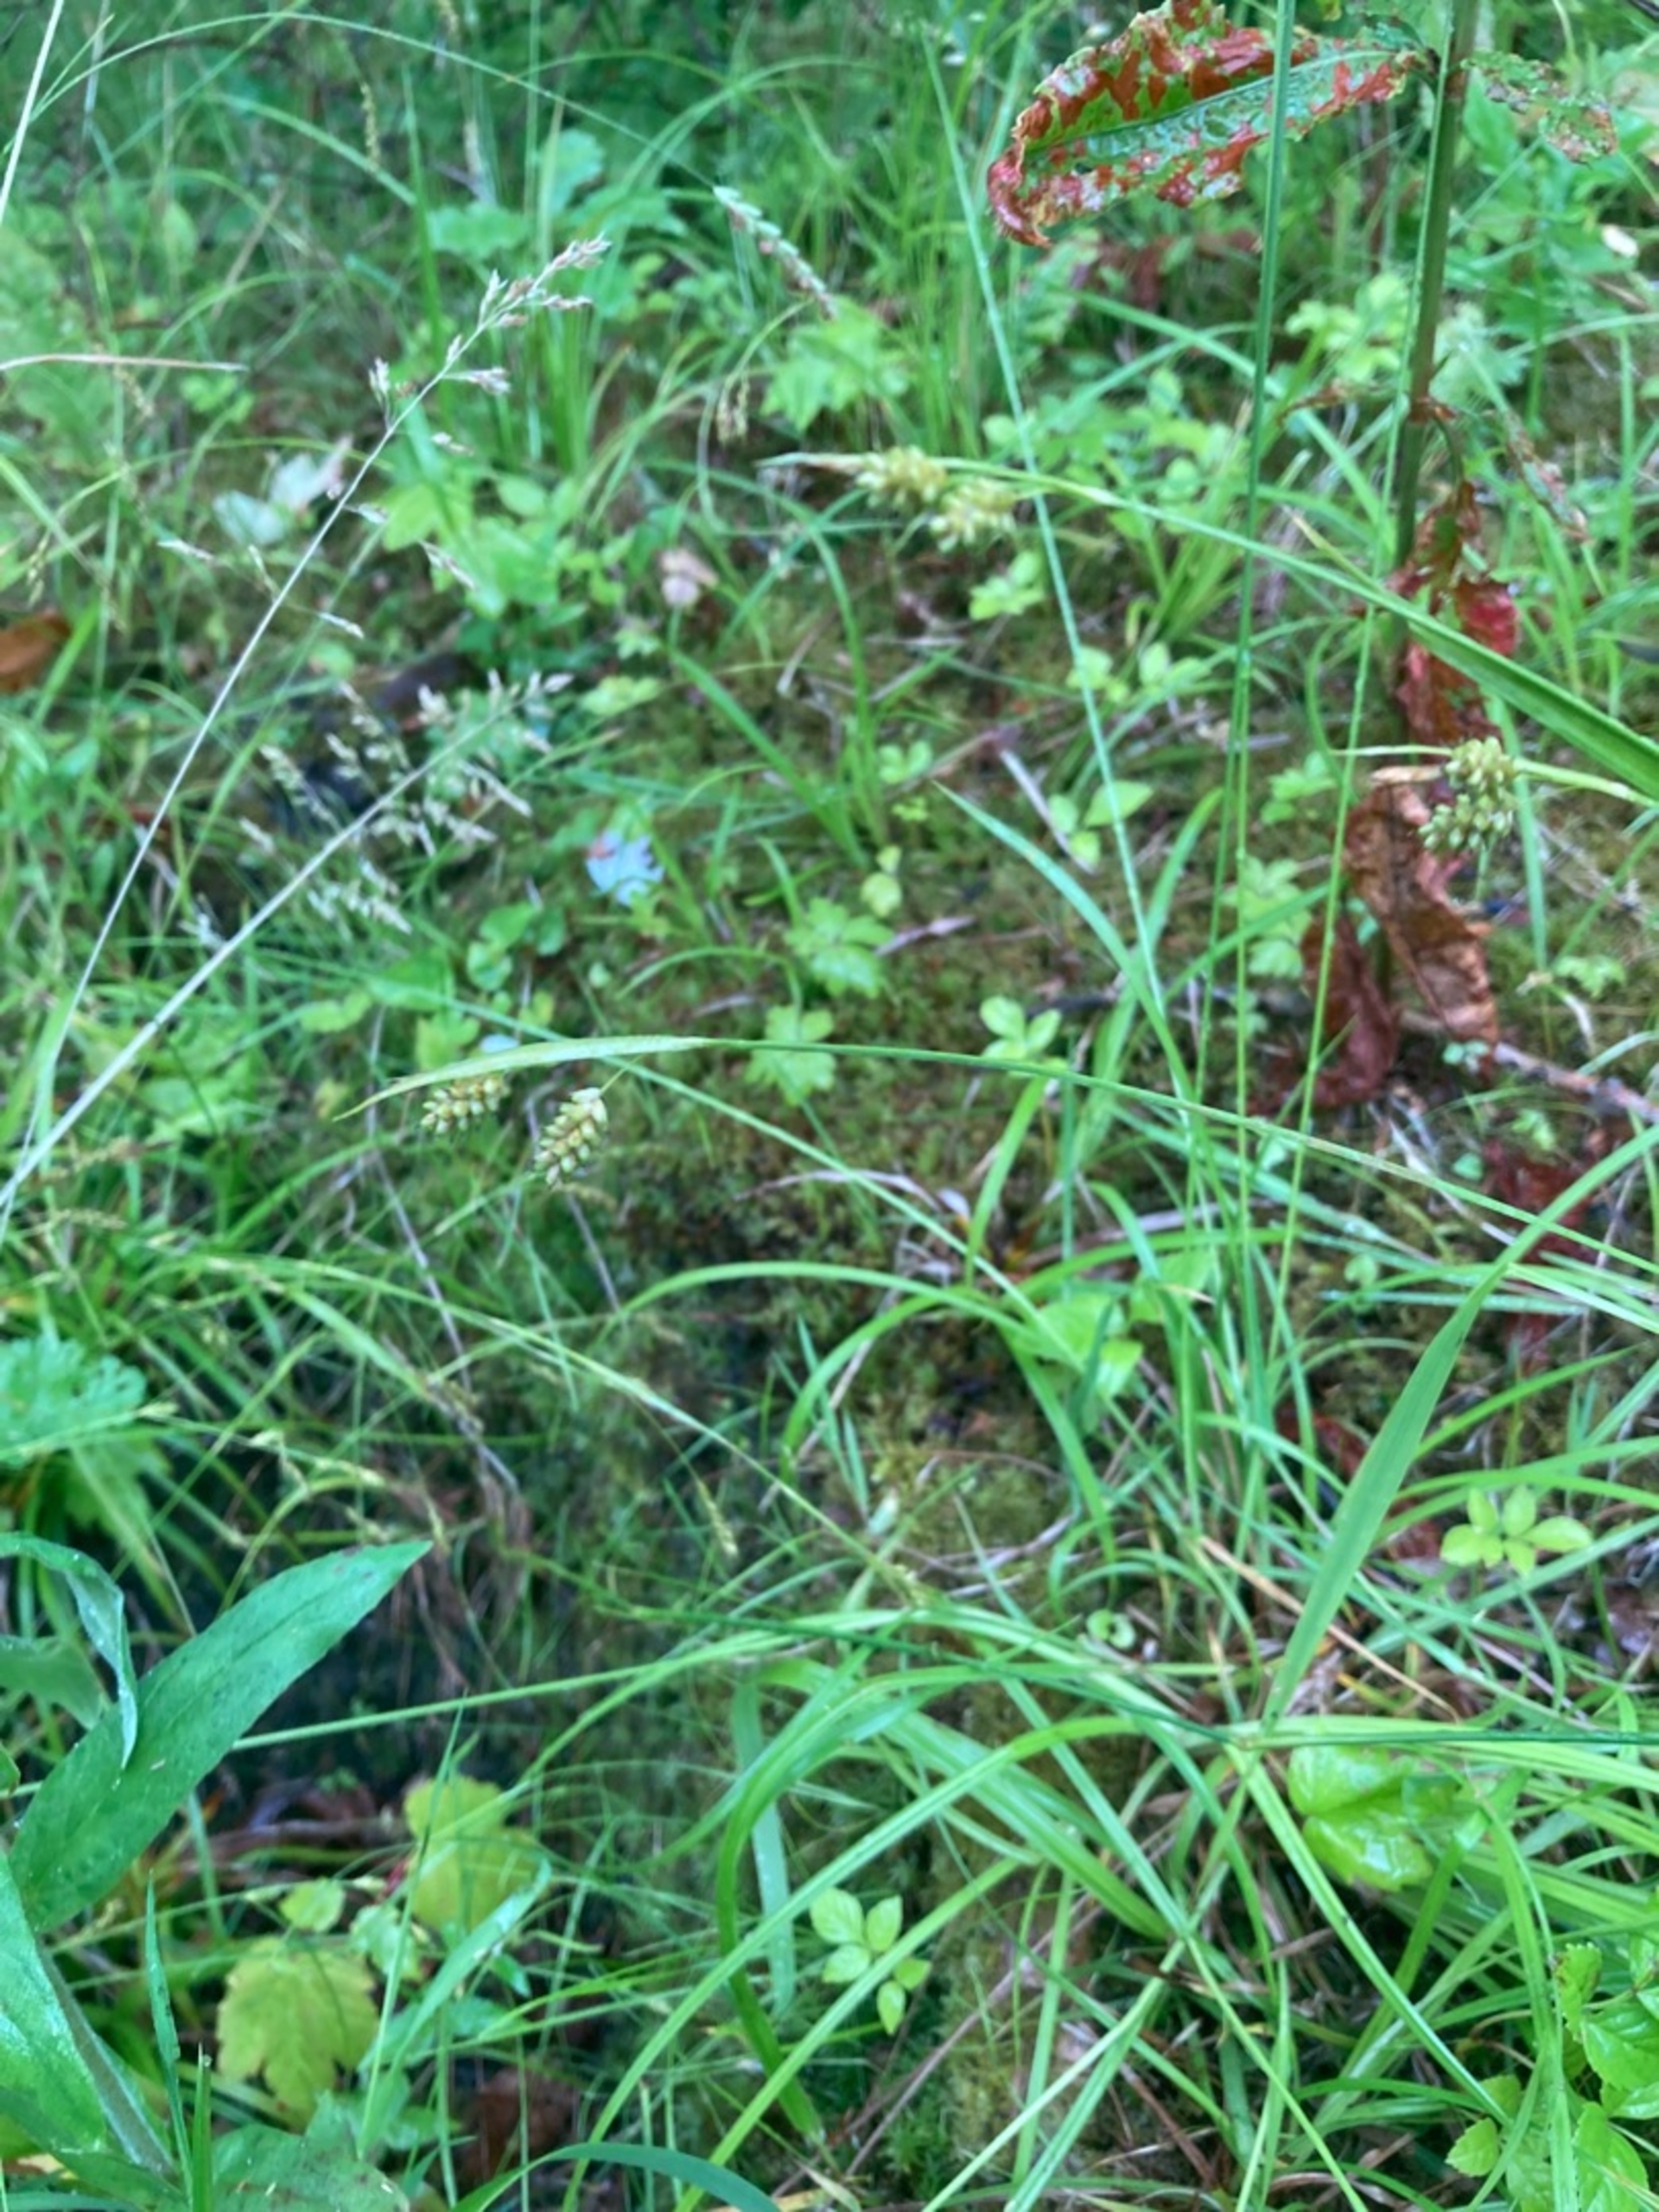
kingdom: Plantae
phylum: Tracheophyta
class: Liliopsida
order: Poales
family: Cyperaceae
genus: Carex
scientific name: Carex pallescens
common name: Bleg star
